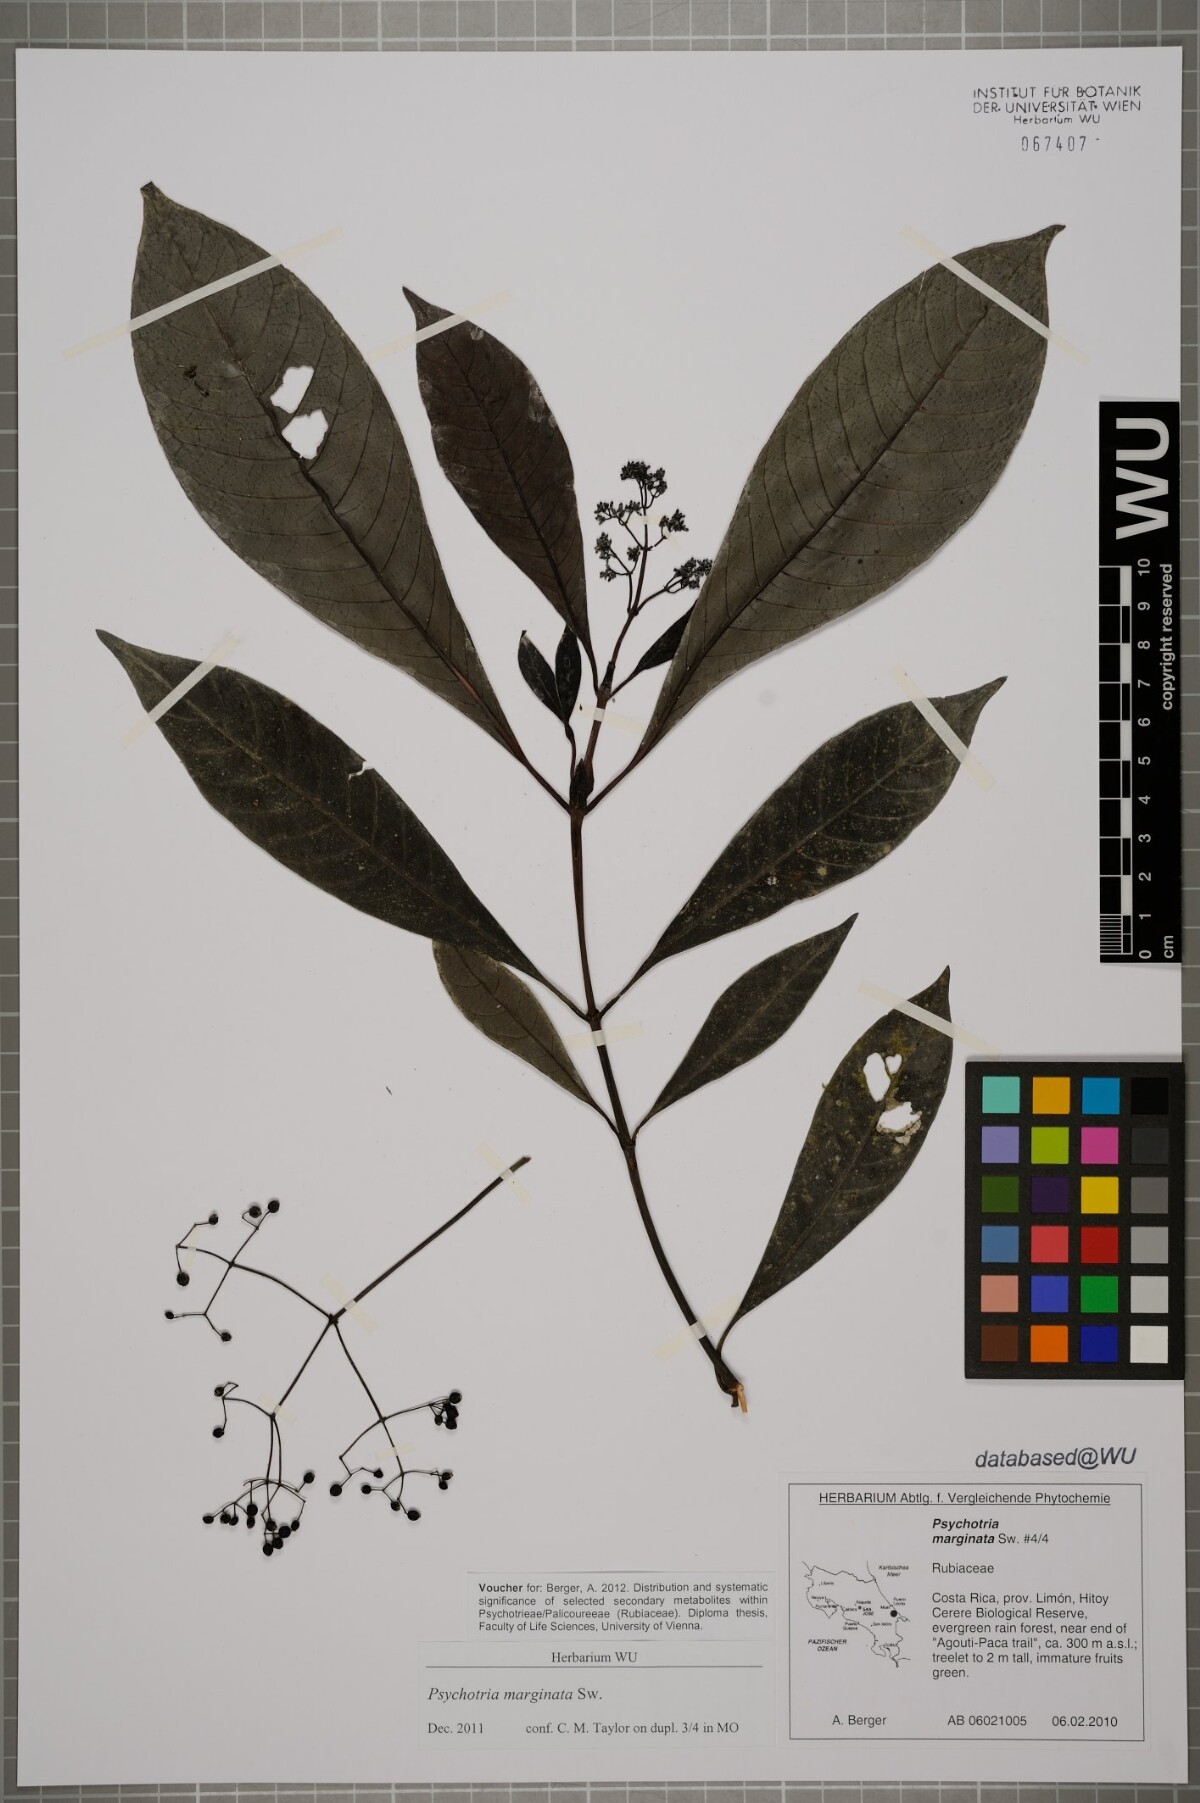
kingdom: Plantae
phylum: Tracheophyta
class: Magnoliopsida
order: Gentianales
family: Rubiaceae
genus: Psychotria
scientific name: Psychotria marginata
